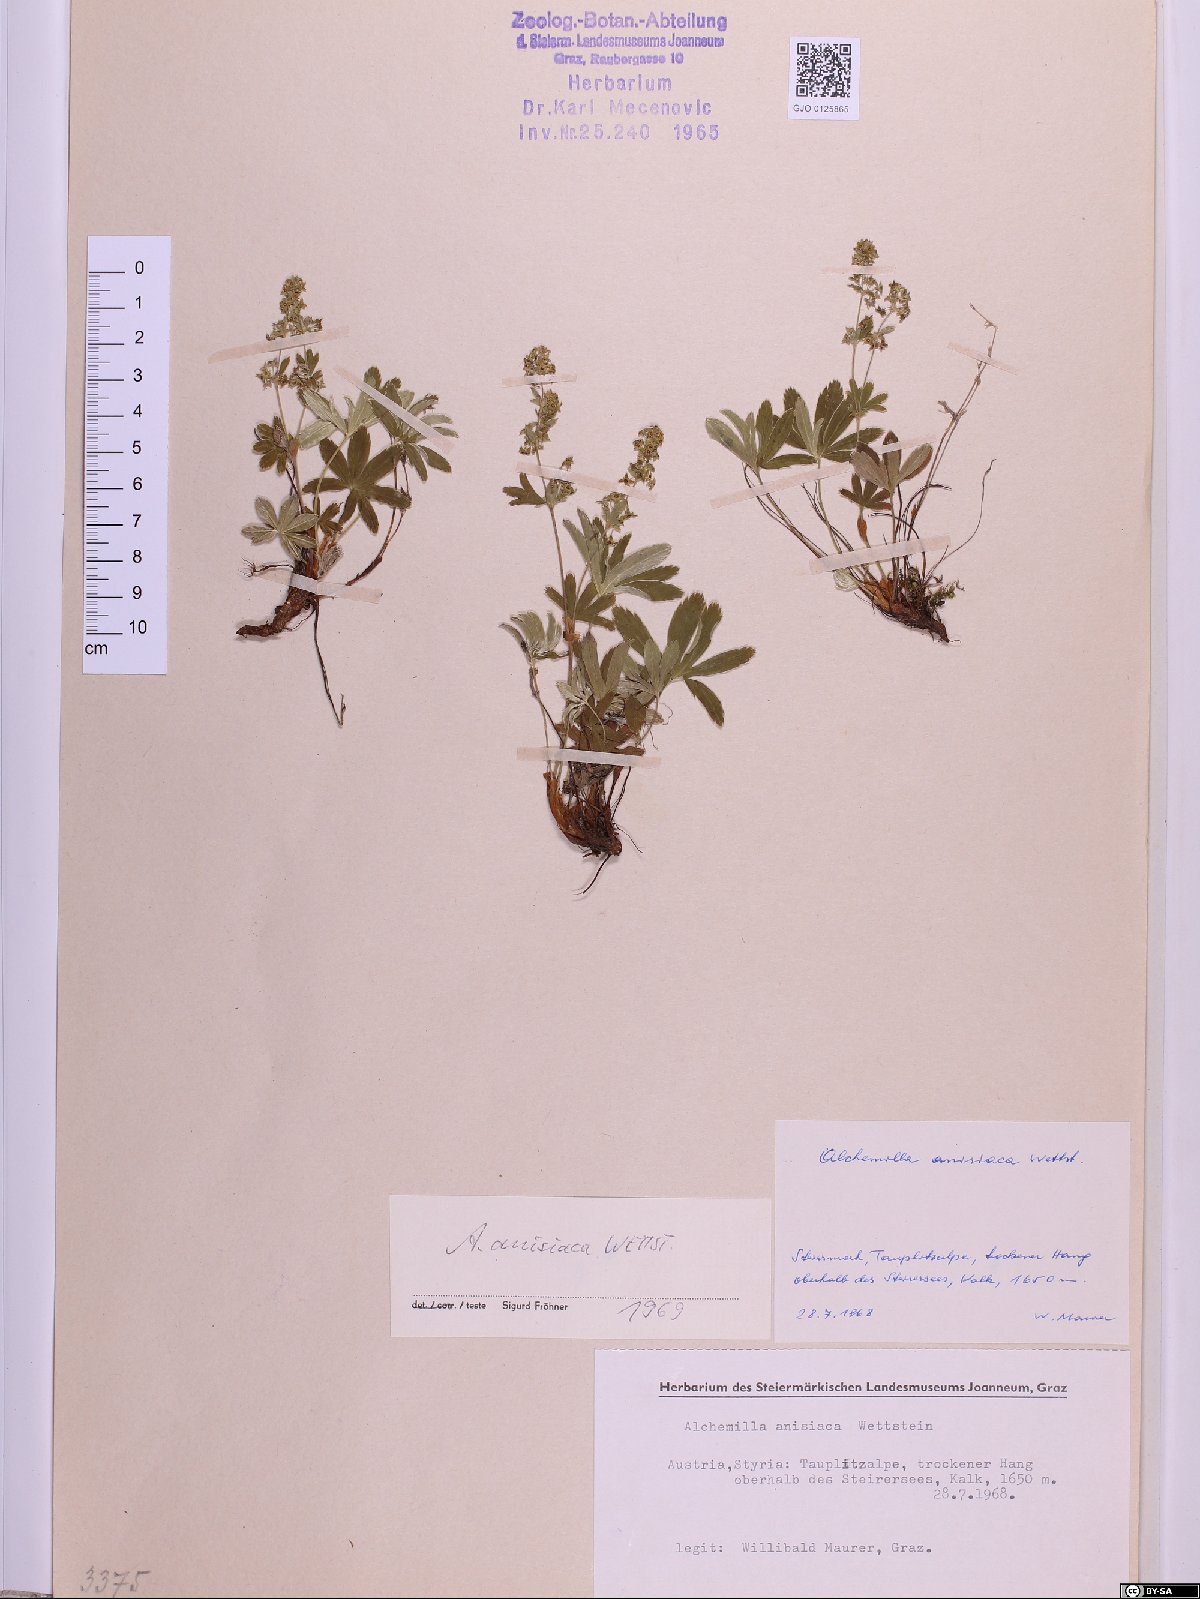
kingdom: Plantae
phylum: Tracheophyta
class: Magnoliopsida
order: Rosales
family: Rosaceae
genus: Alchemilla
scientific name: Alchemilla anisiaca
